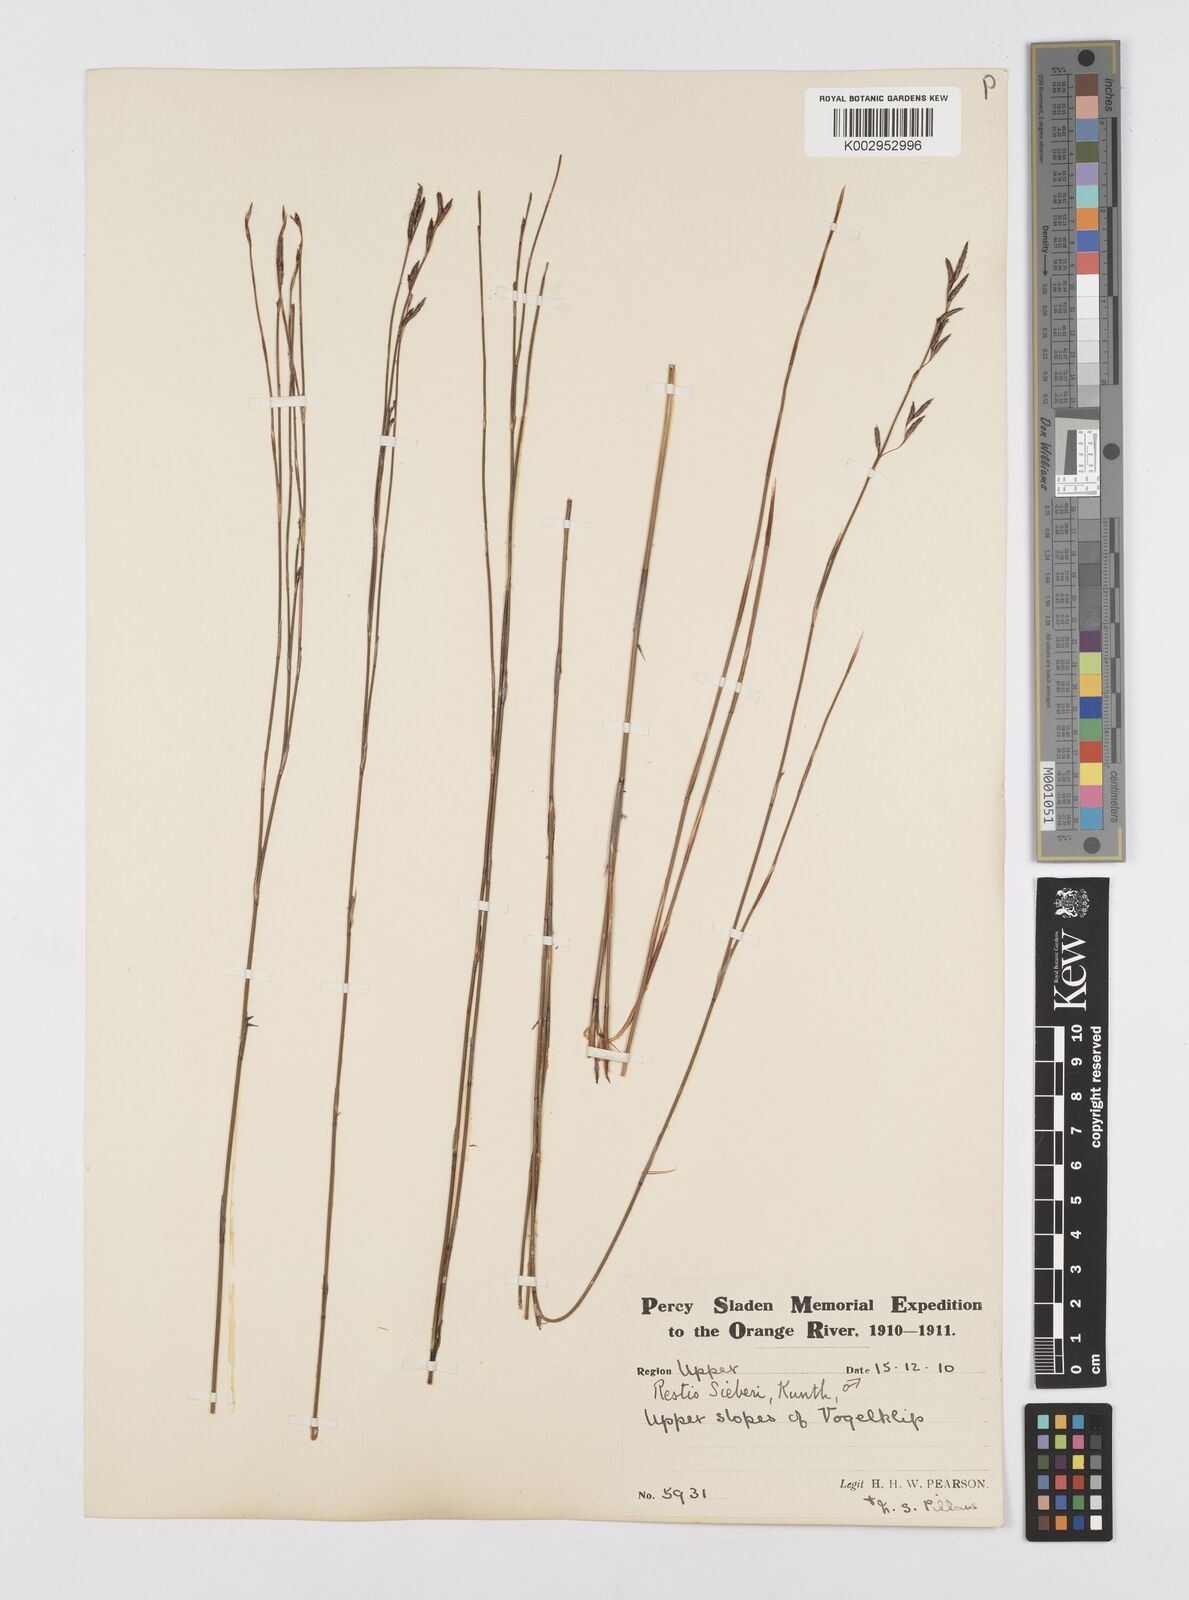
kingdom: Plantae
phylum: Tracheophyta
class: Liliopsida
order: Poales
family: Restionaceae
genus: Restio
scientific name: Restio sieberi
